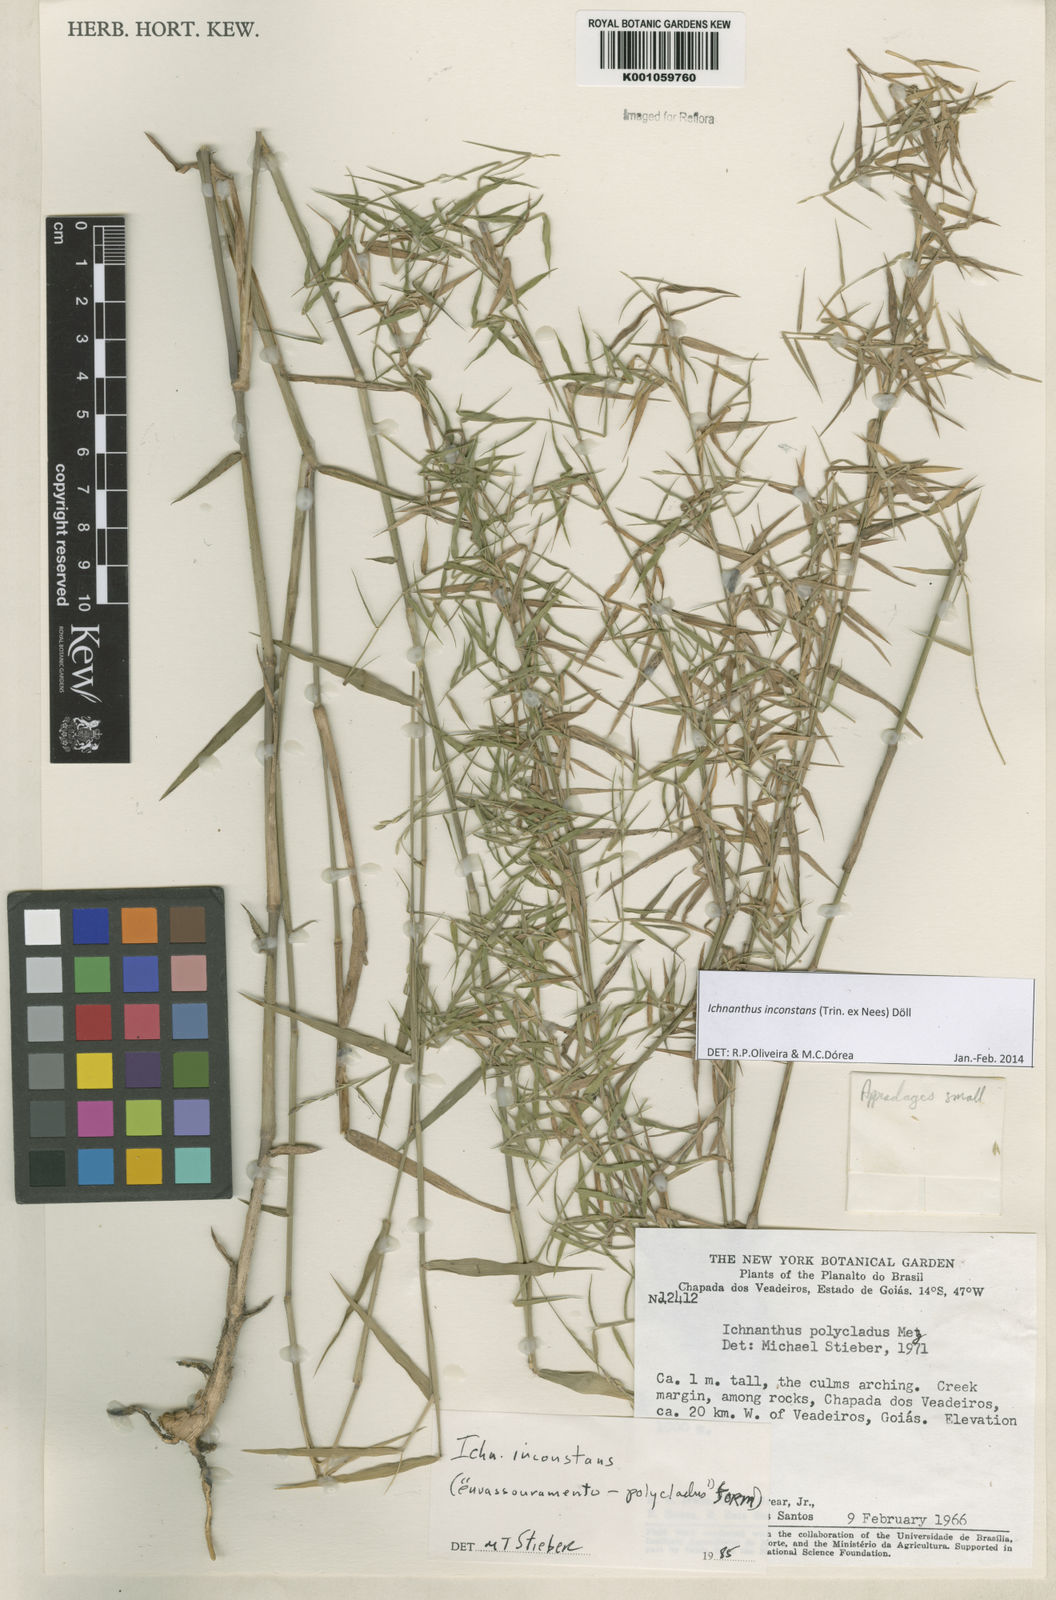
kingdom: Plantae
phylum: Tracheophyta
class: Liliopsida
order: Poales
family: Poaceae
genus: Ichnanthus
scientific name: Ichnanthus
